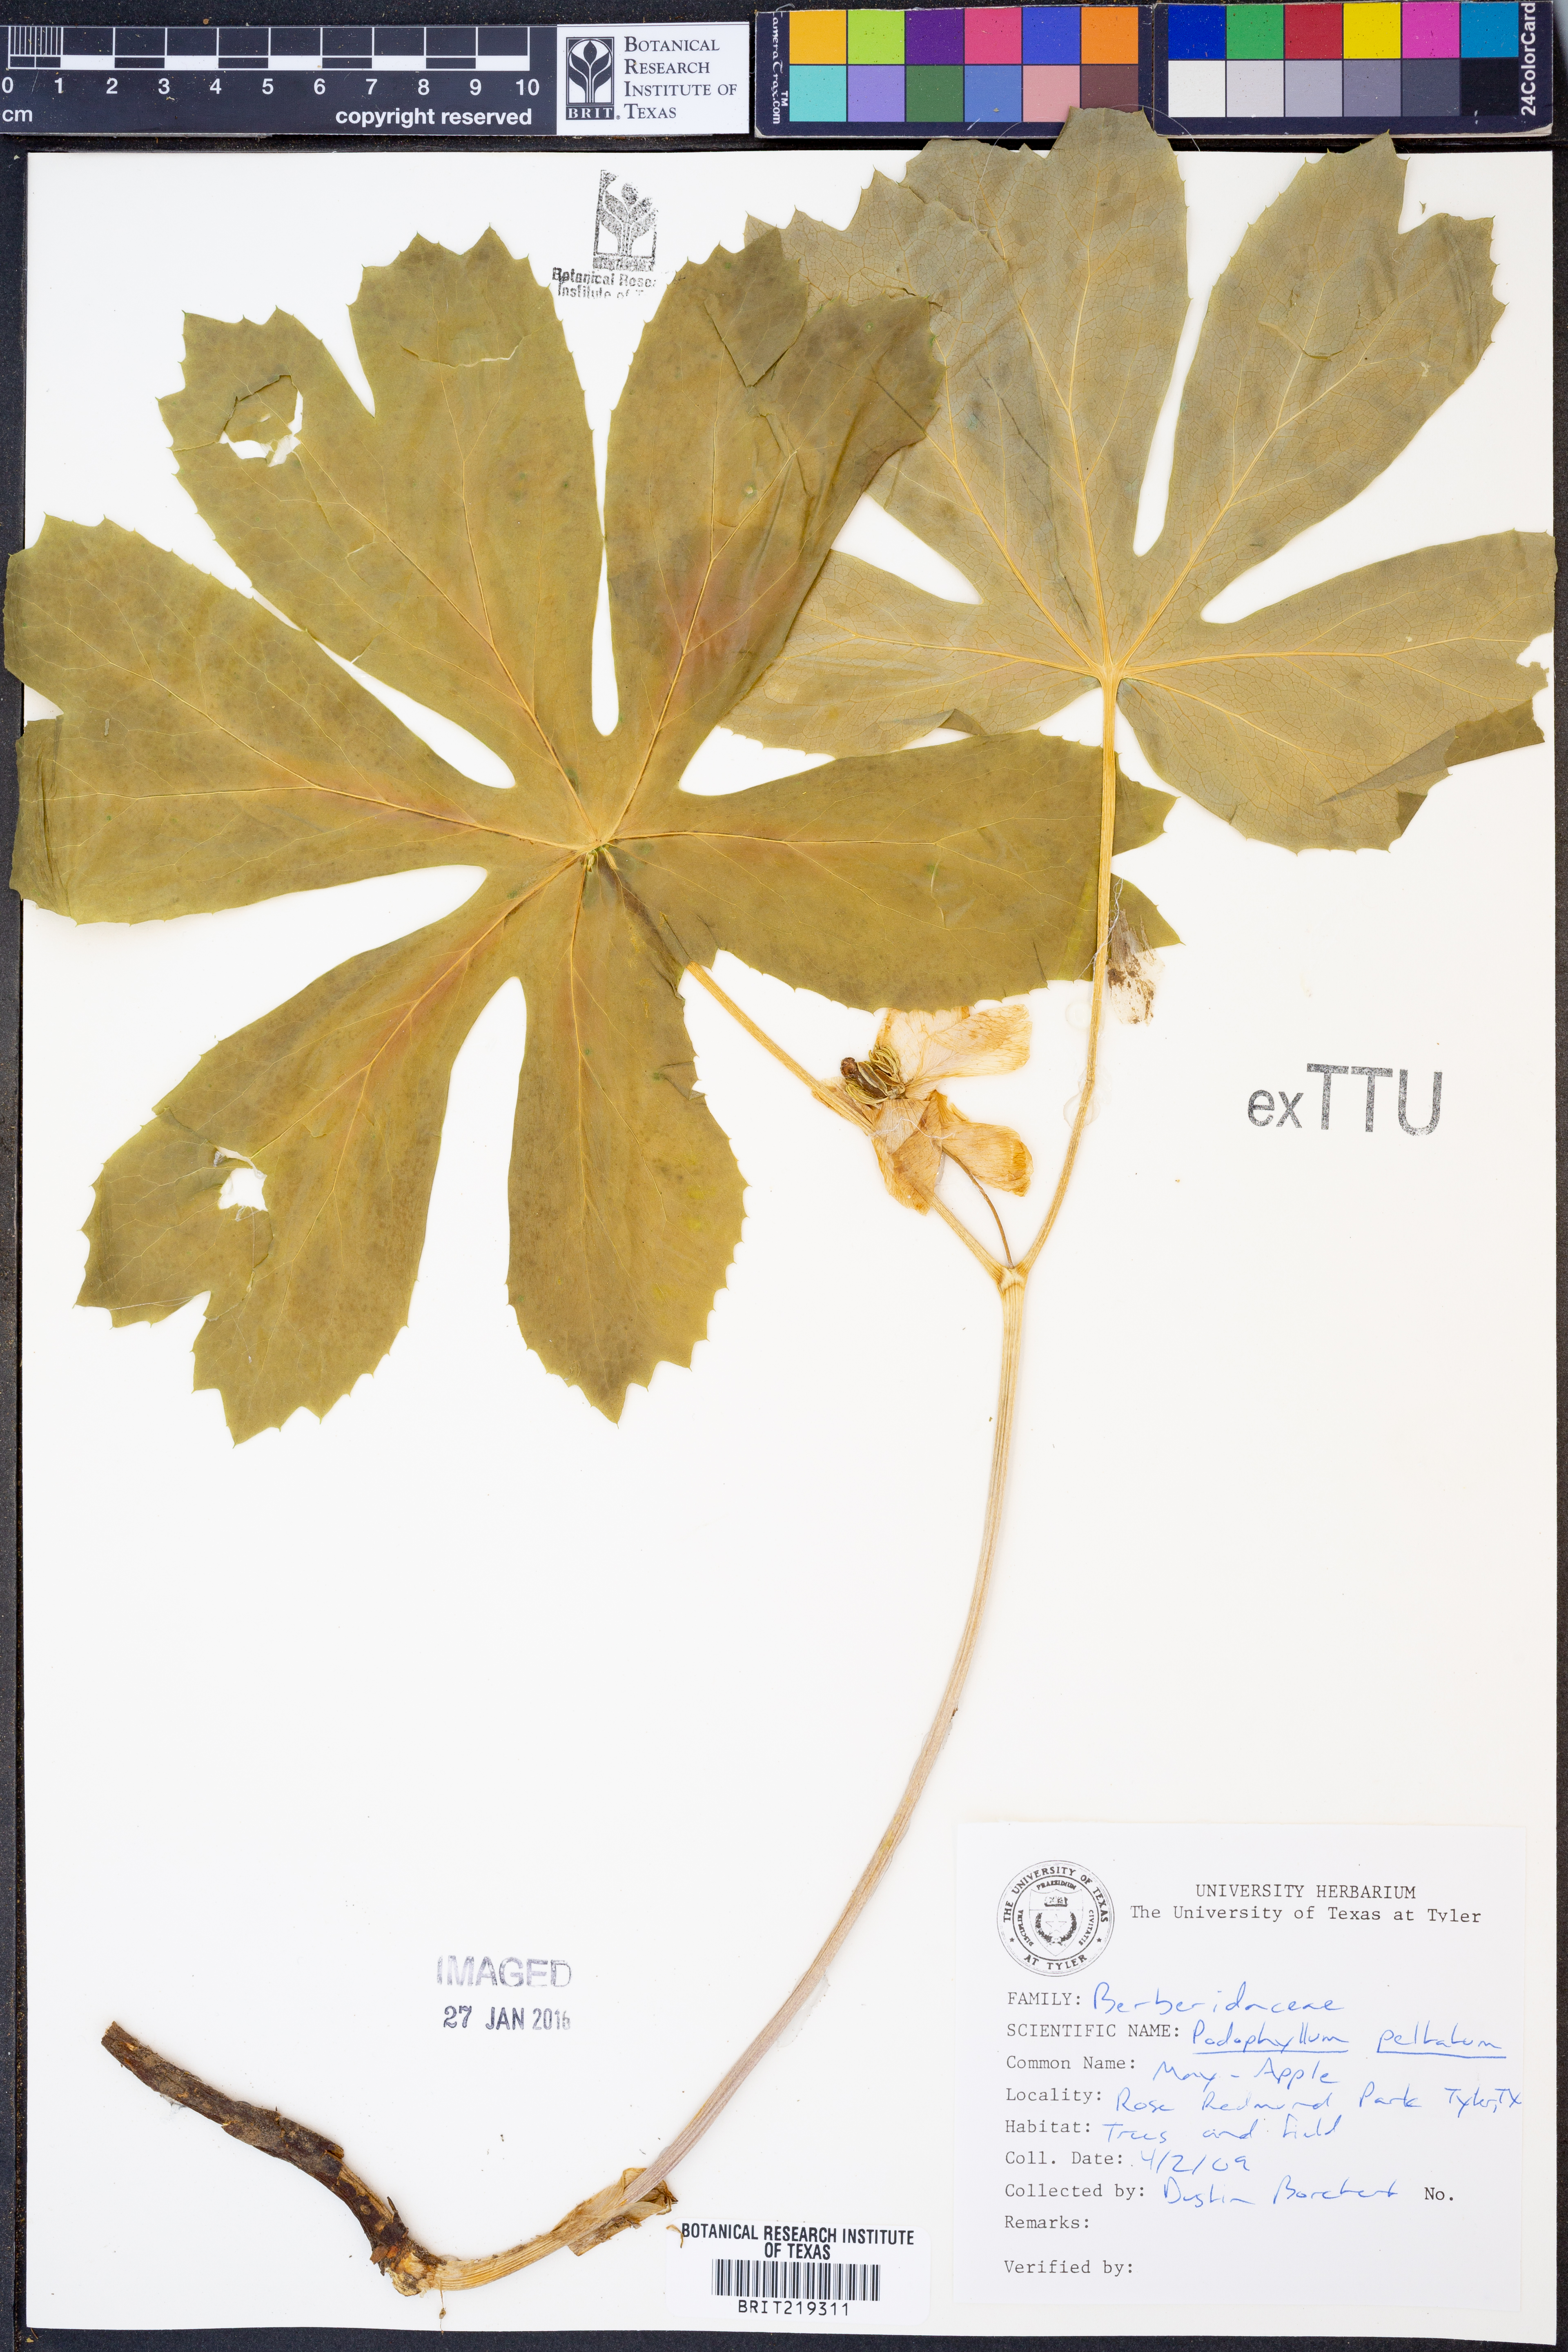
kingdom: Plantae
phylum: Tracheophyta
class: Magnoliopsida
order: Ranunculales
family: Berberidaceae
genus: Podophyllum
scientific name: Podophyllum peltatum
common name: Wild mandrake
